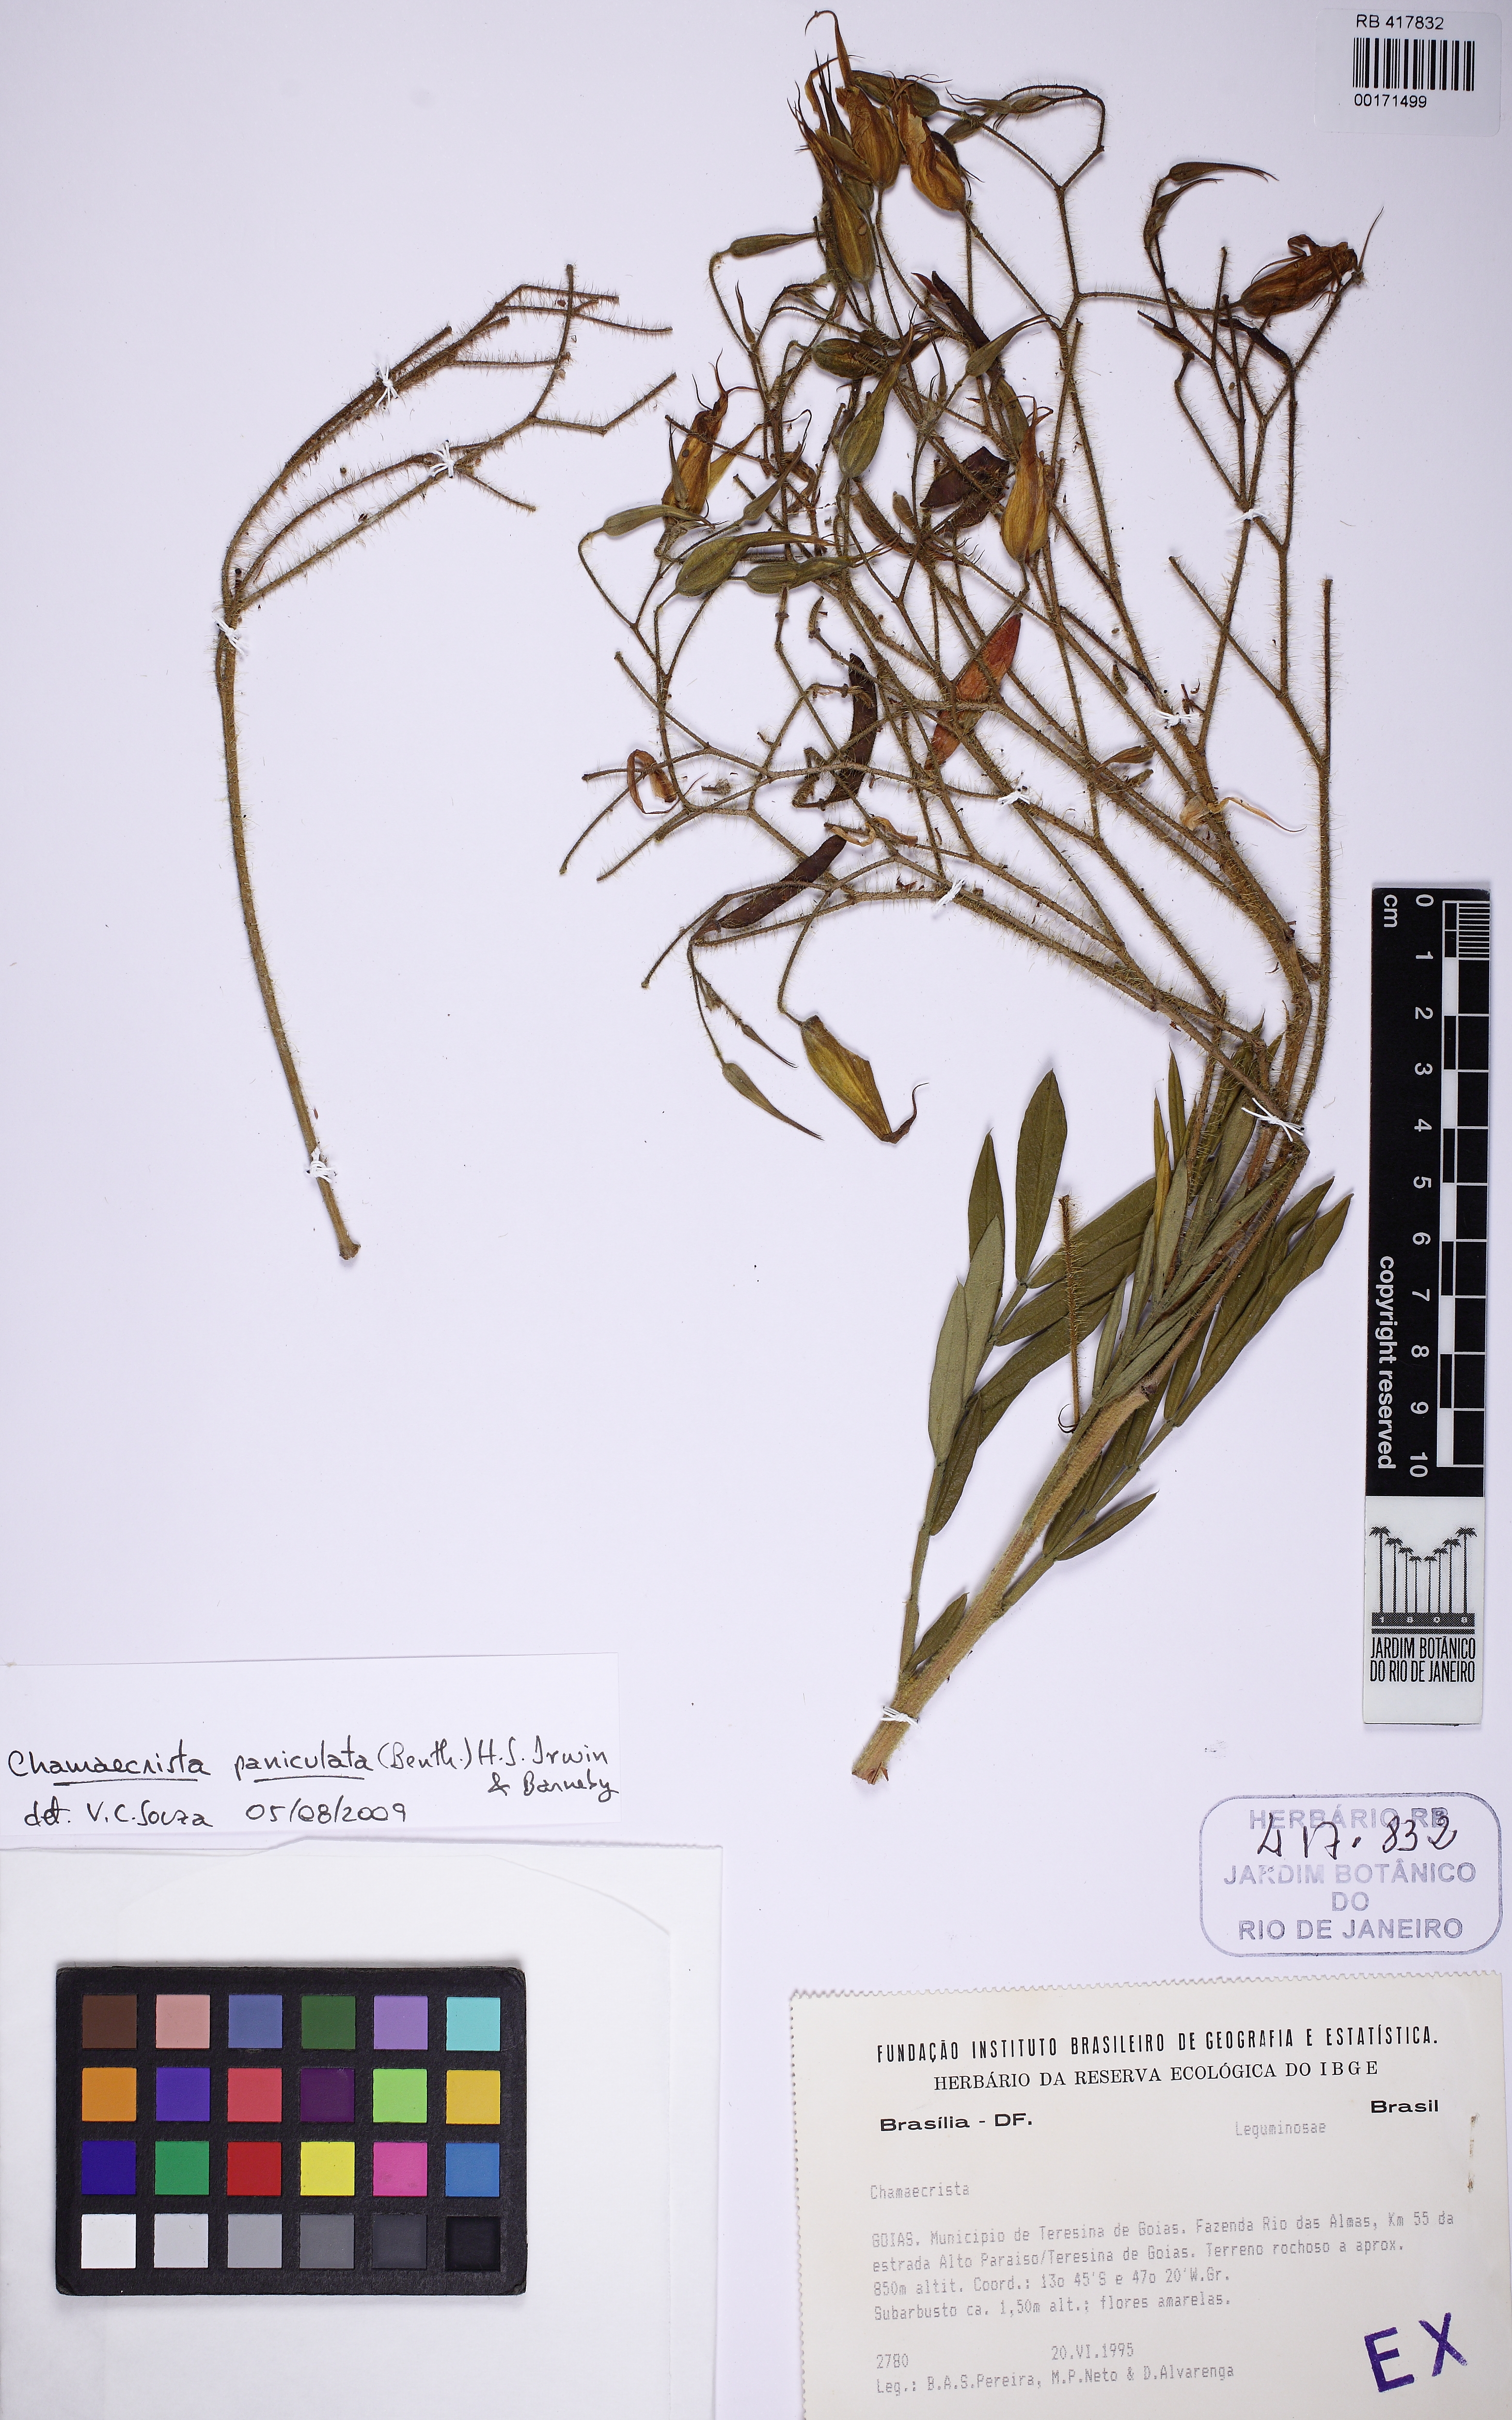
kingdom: Plantae
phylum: Tracheophyta
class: Magnoliopsida
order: Fabales
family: Fabaceae
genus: Chamaecrista
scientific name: Chamaecrista paniculata
